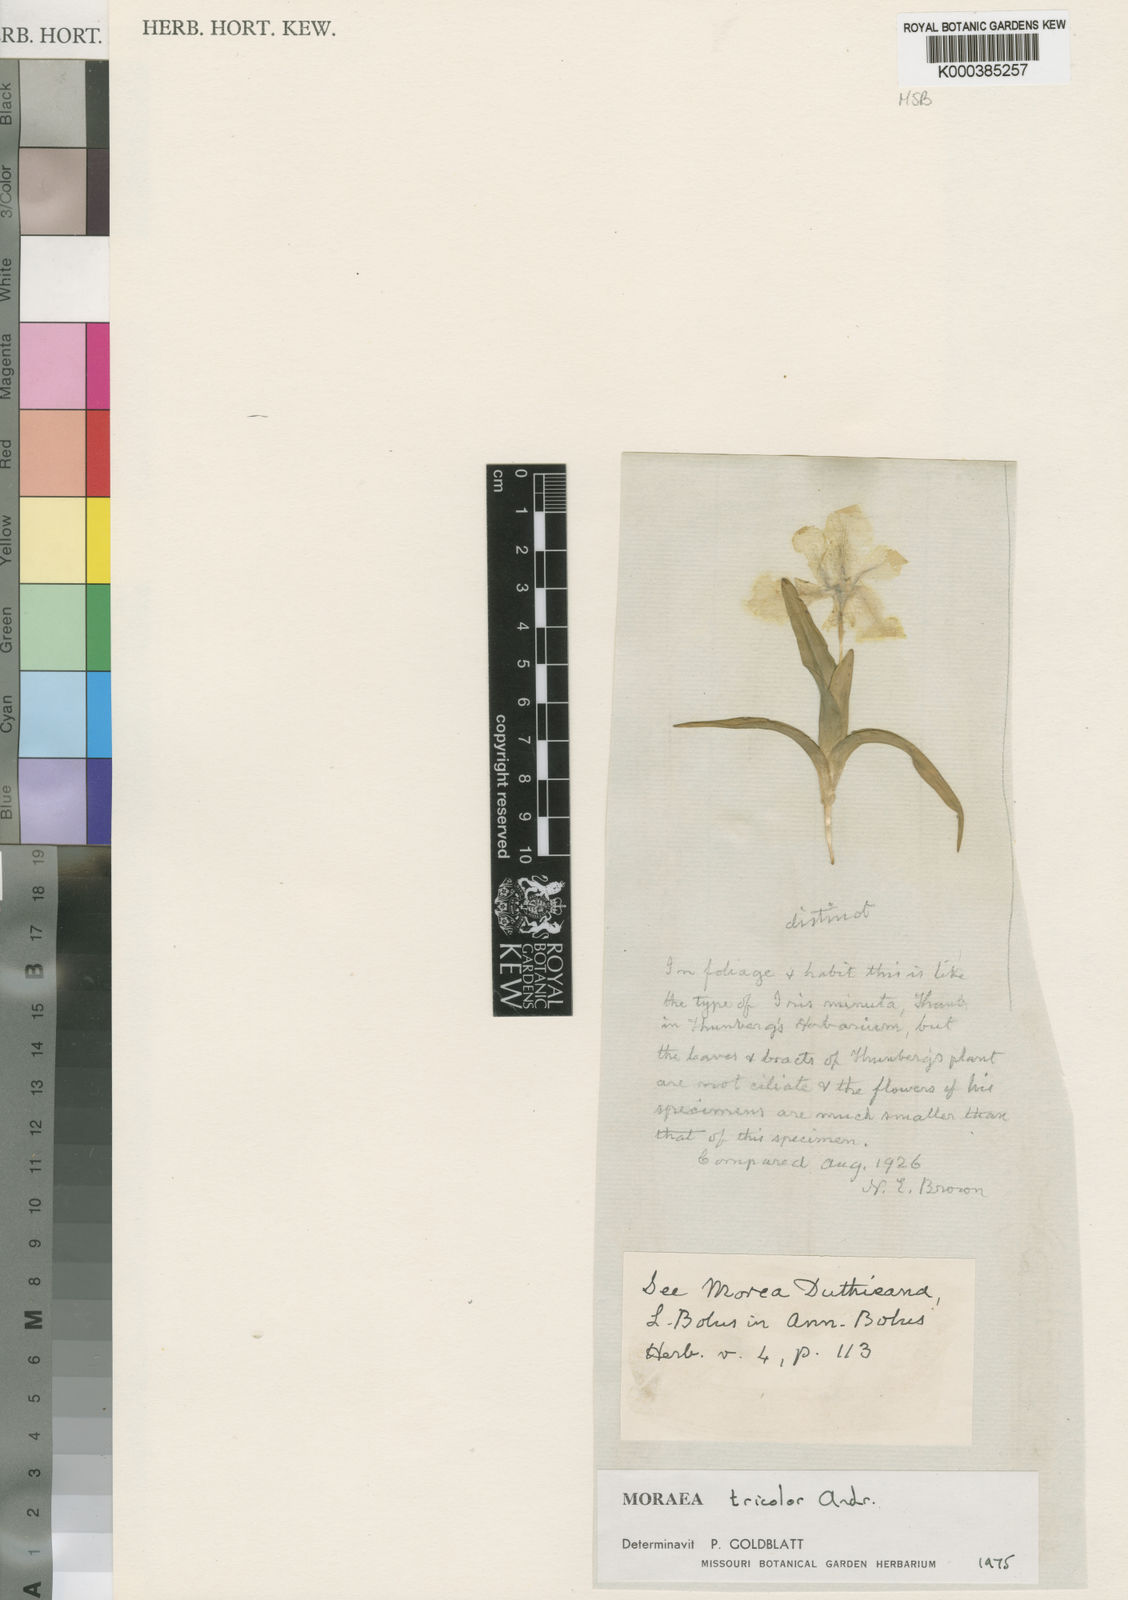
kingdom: Plantae
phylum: Tracheophyta
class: Liliopsida
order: Asparagales
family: Iridaceae
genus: Moraea
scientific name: Moraea tricolor
